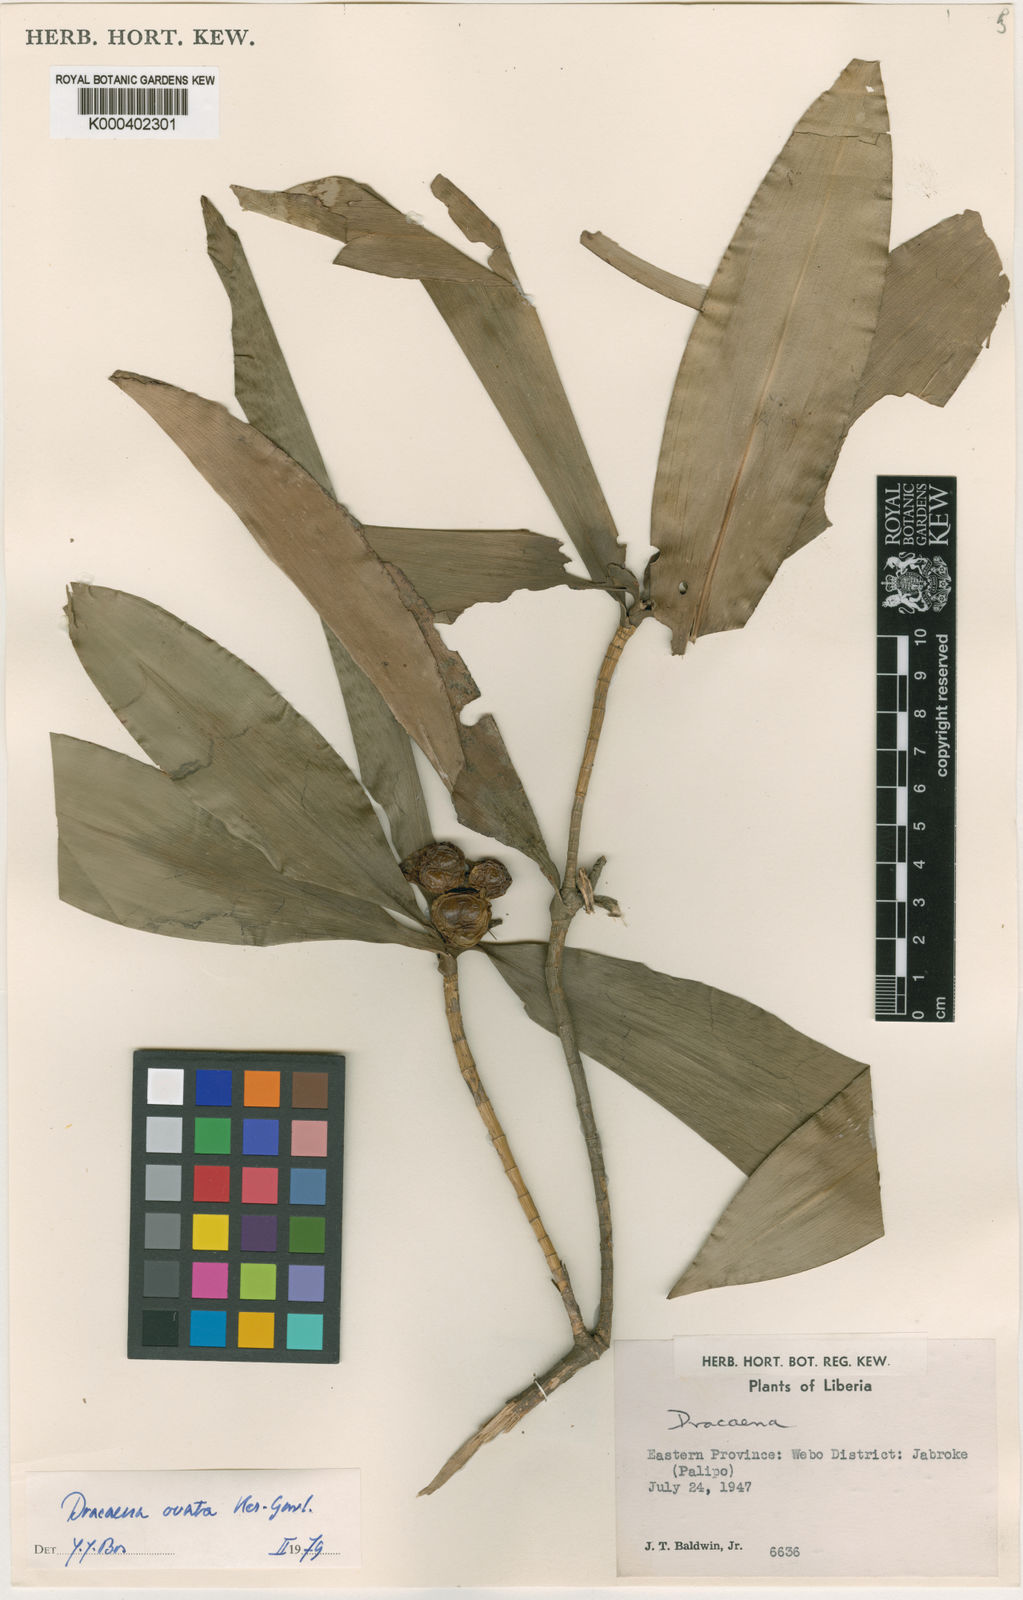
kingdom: Plantae
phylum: Tracheophyta
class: Liliopsida
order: Asparagales
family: Asparagaceae
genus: Dracaena
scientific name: Dracaena ovata
